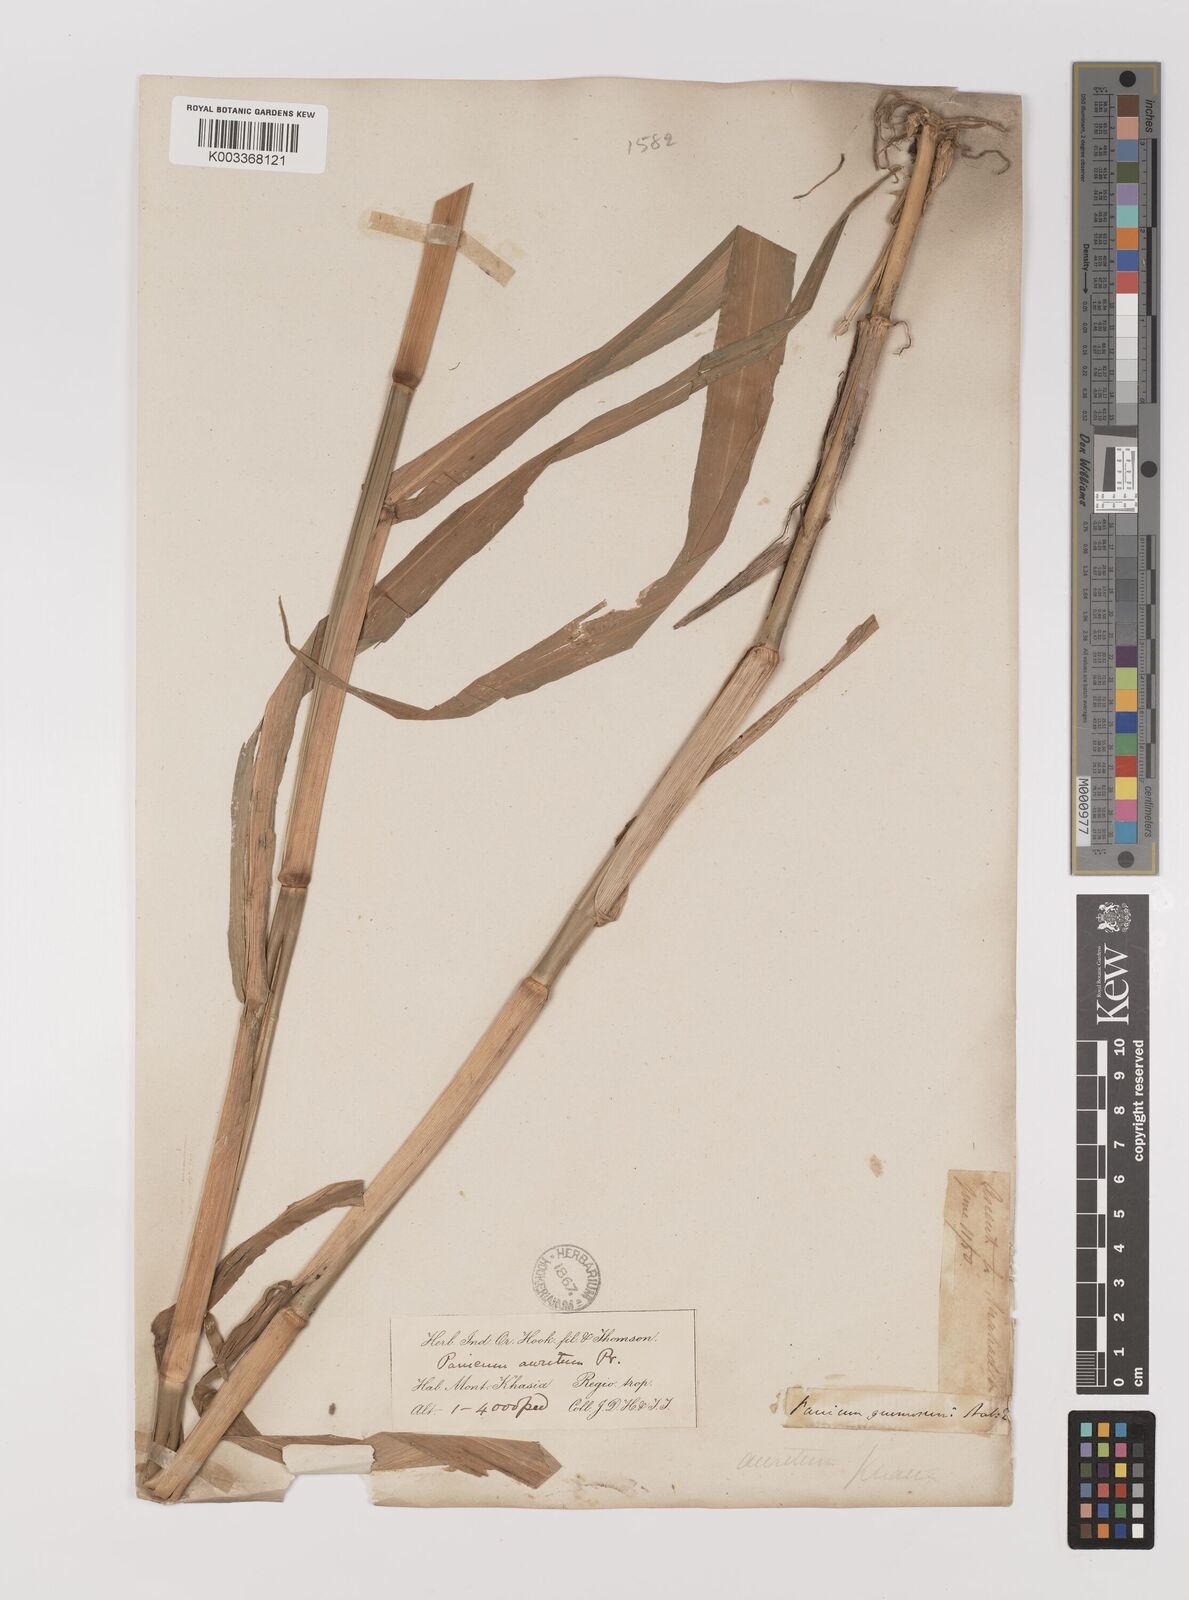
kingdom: Plantae
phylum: Tracheophyta
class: Liliopsida
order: Poales
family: Poaceae
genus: Hymenachne
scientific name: Hymenachne aurita
